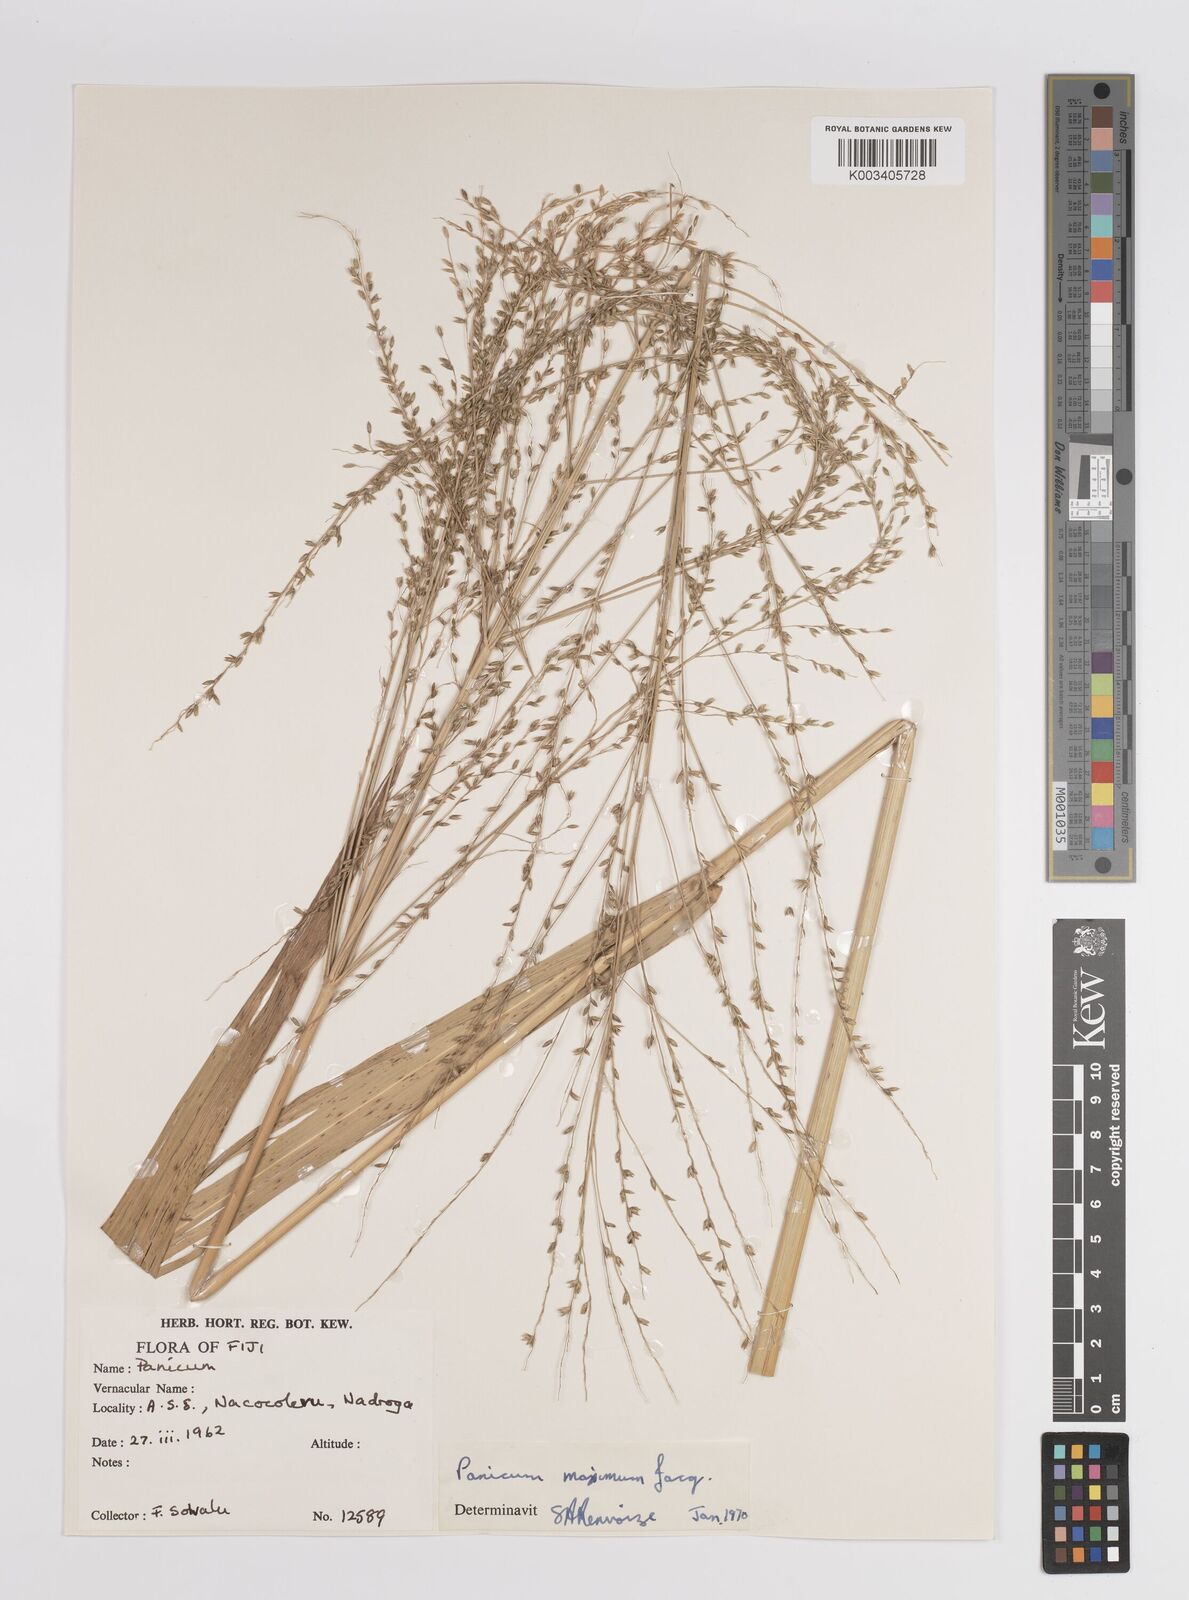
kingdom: Plantae
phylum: Tracheophyta
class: Liliopsida
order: Poales
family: Poaceae
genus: Megathyrsus
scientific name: Megathyrsus maximus
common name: Guineagrass
